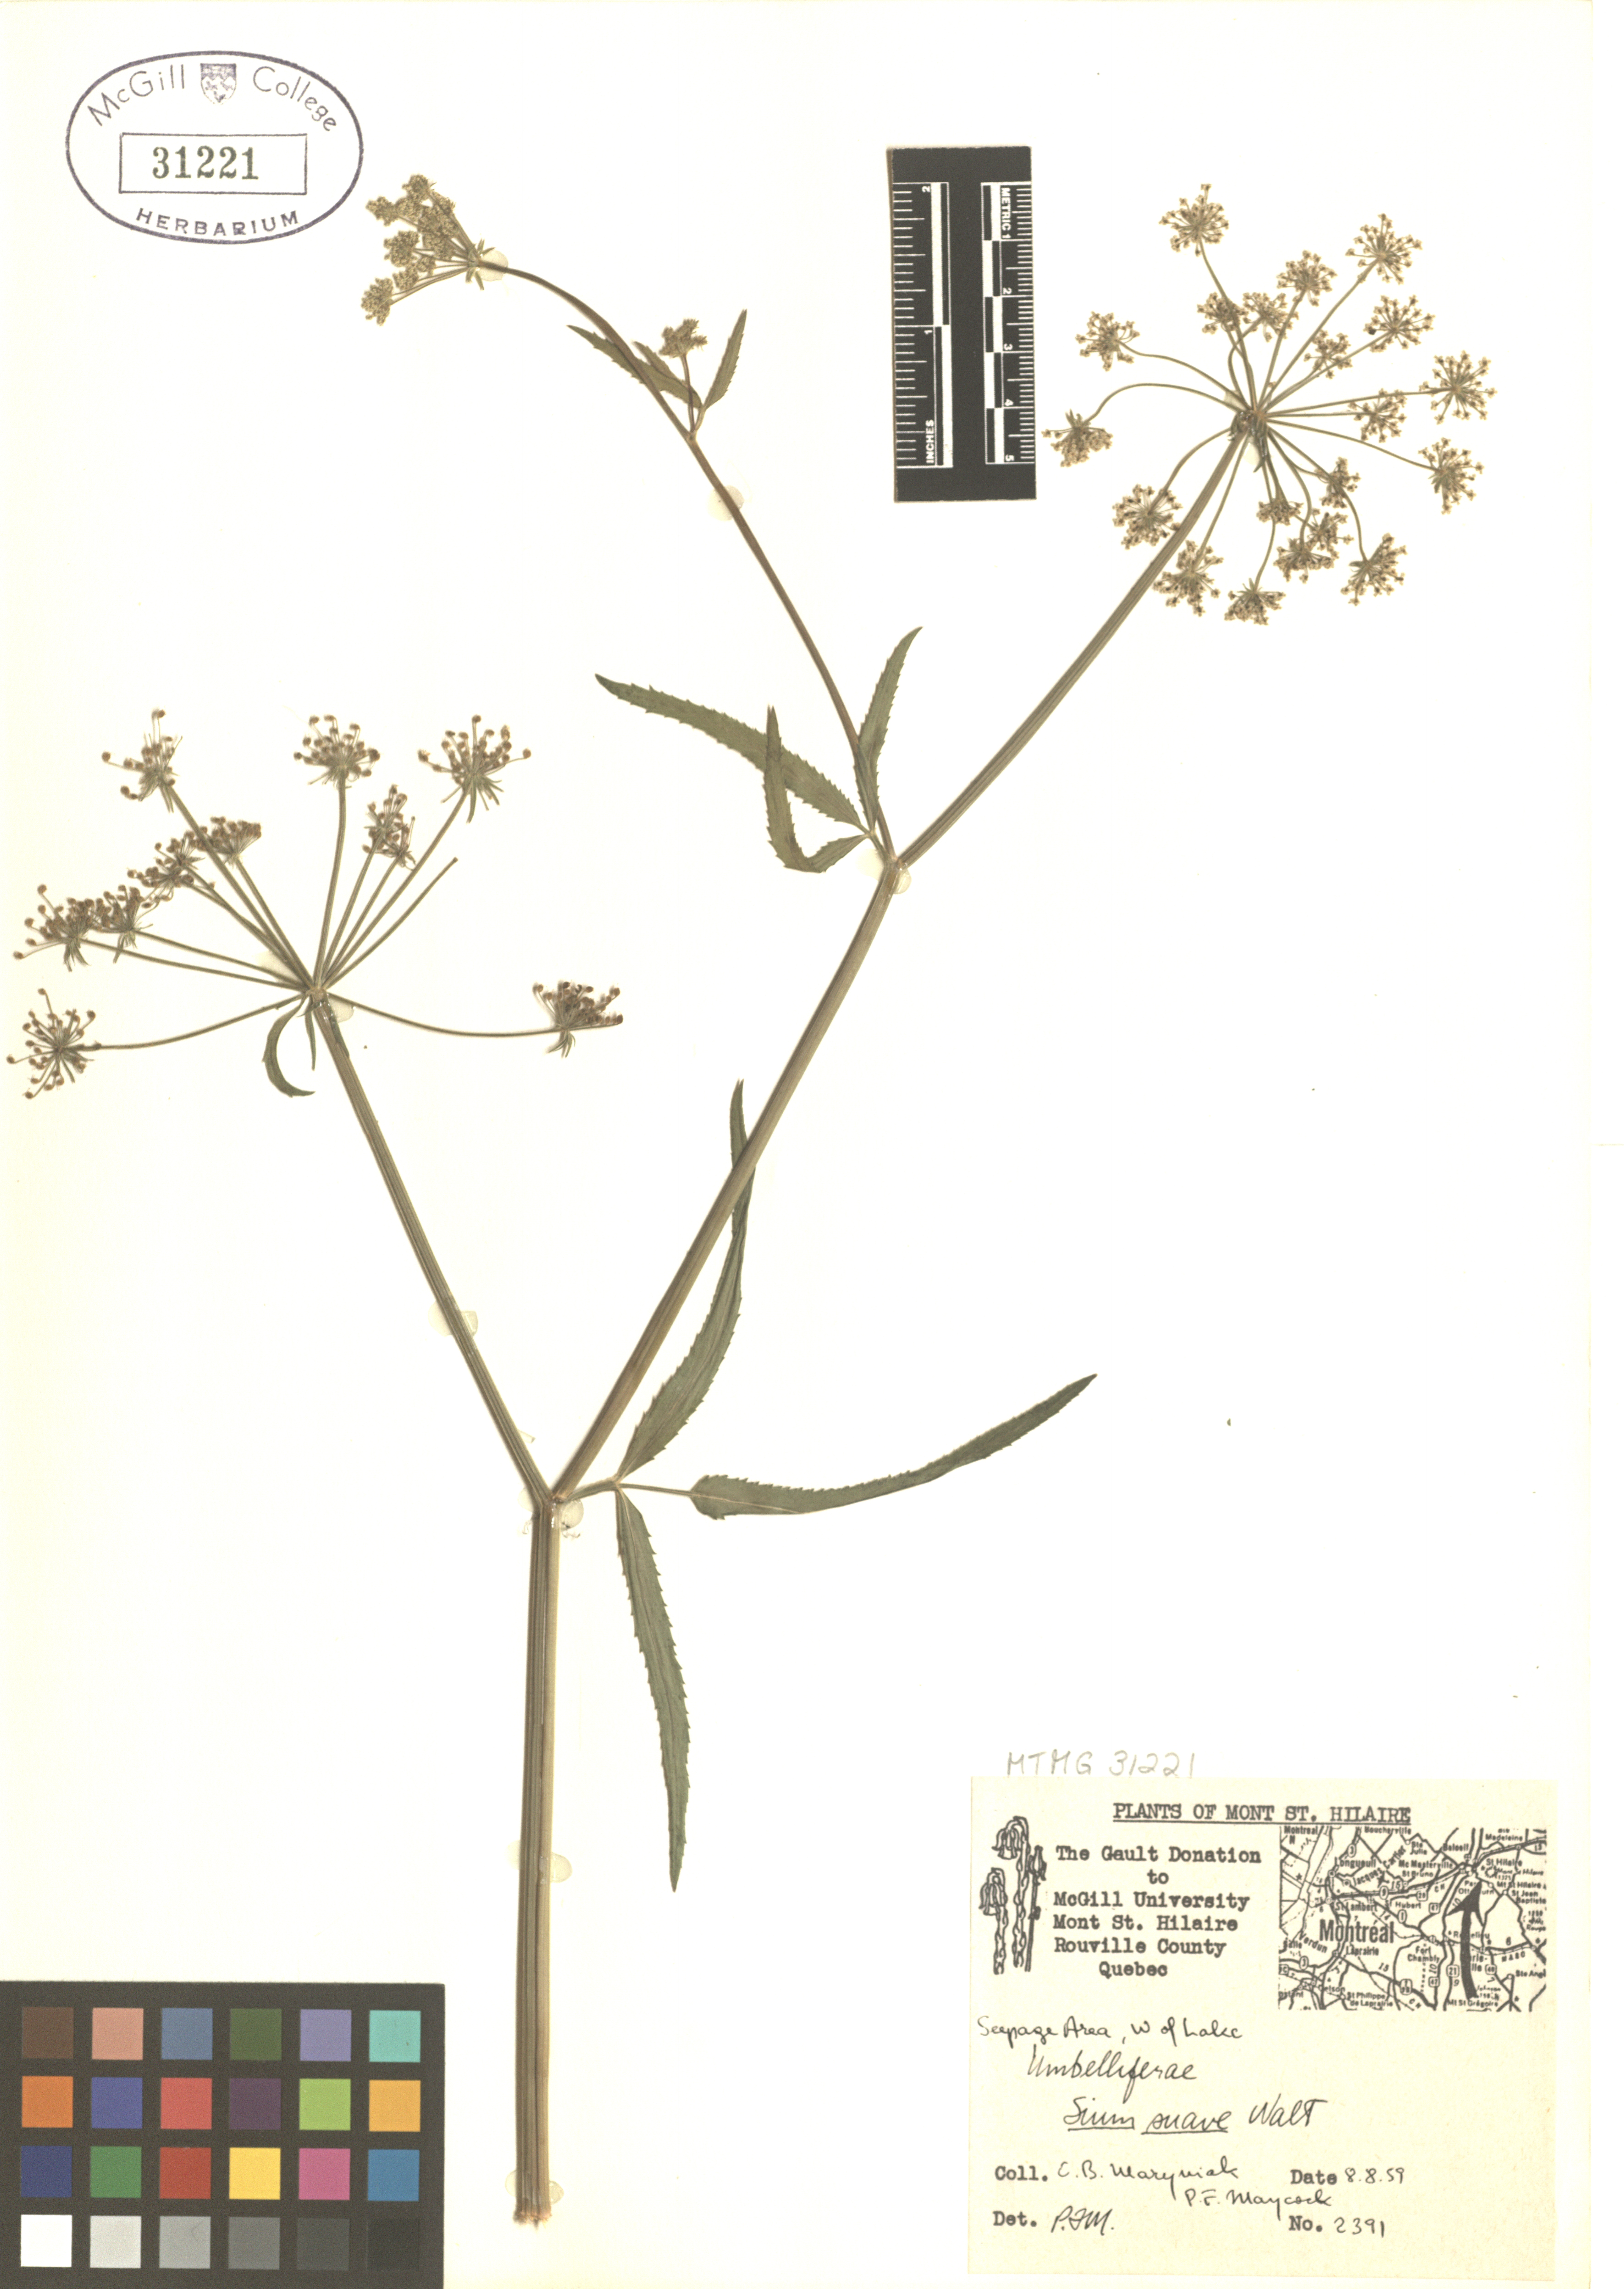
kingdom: Plantae
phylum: Tracheophyta
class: Magnoliopsida
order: Apiales
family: Apiaceae
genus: Sium
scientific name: Sium suave
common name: Hemlock water-parsnip
